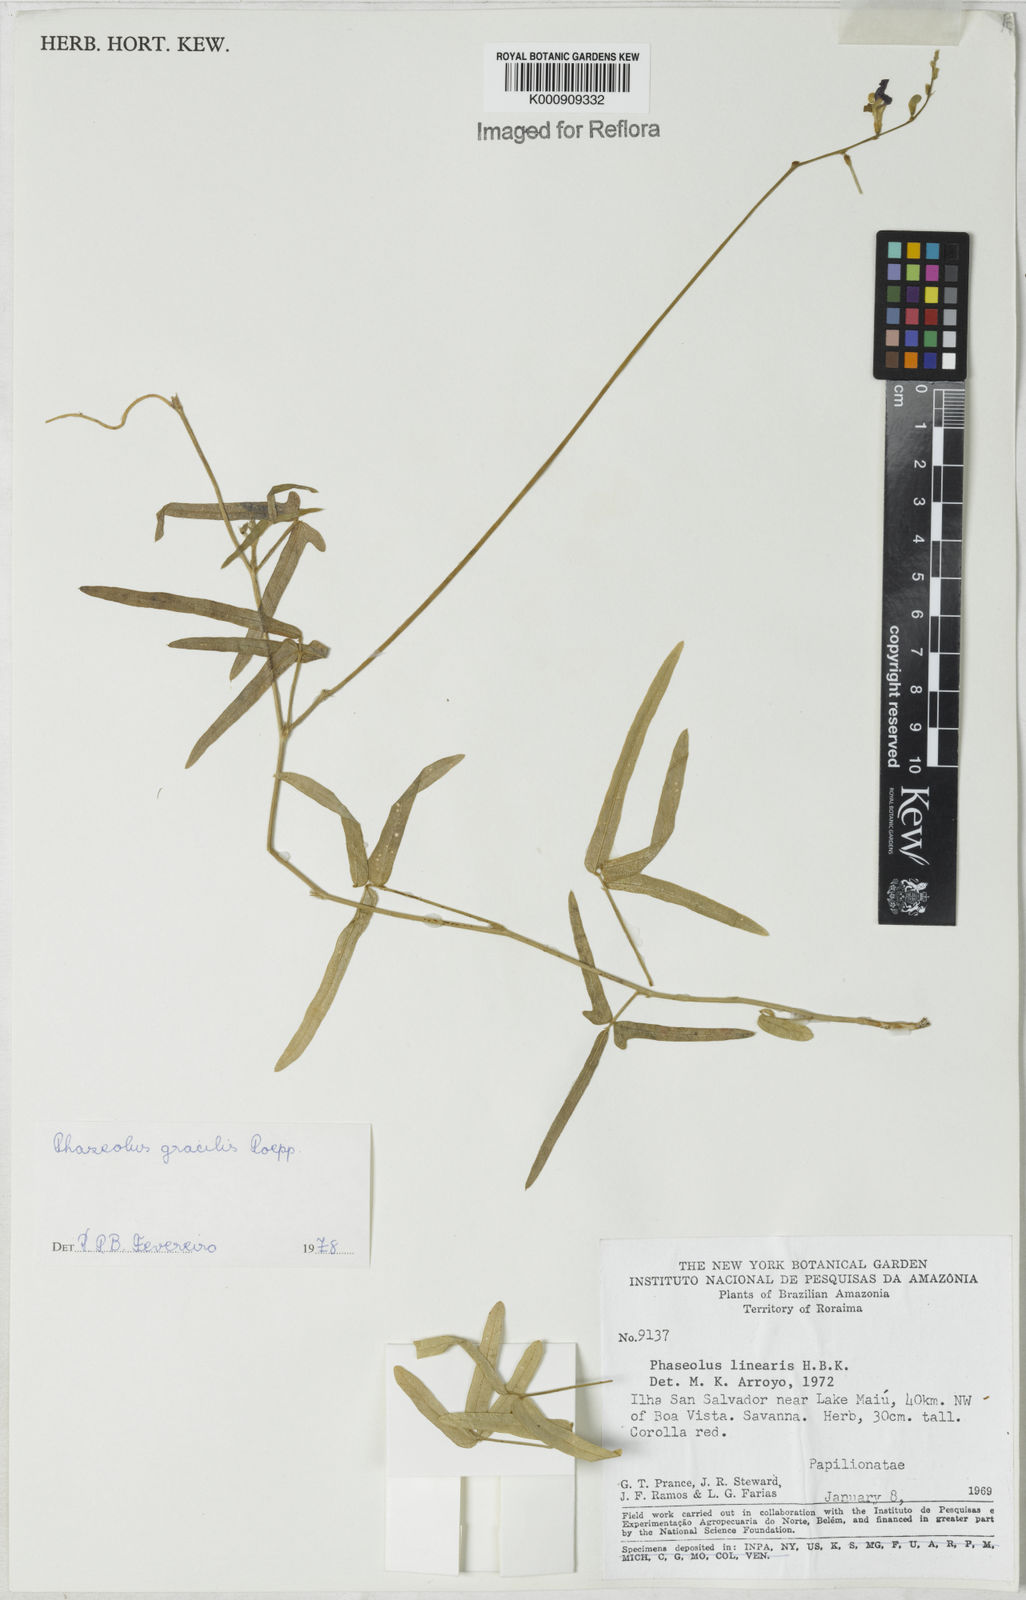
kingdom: Plantae
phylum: Tracheophyta
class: Magnoliopsida
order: Fabales
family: Fabaceae
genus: Macroptilium
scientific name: Macroptilium gracile
